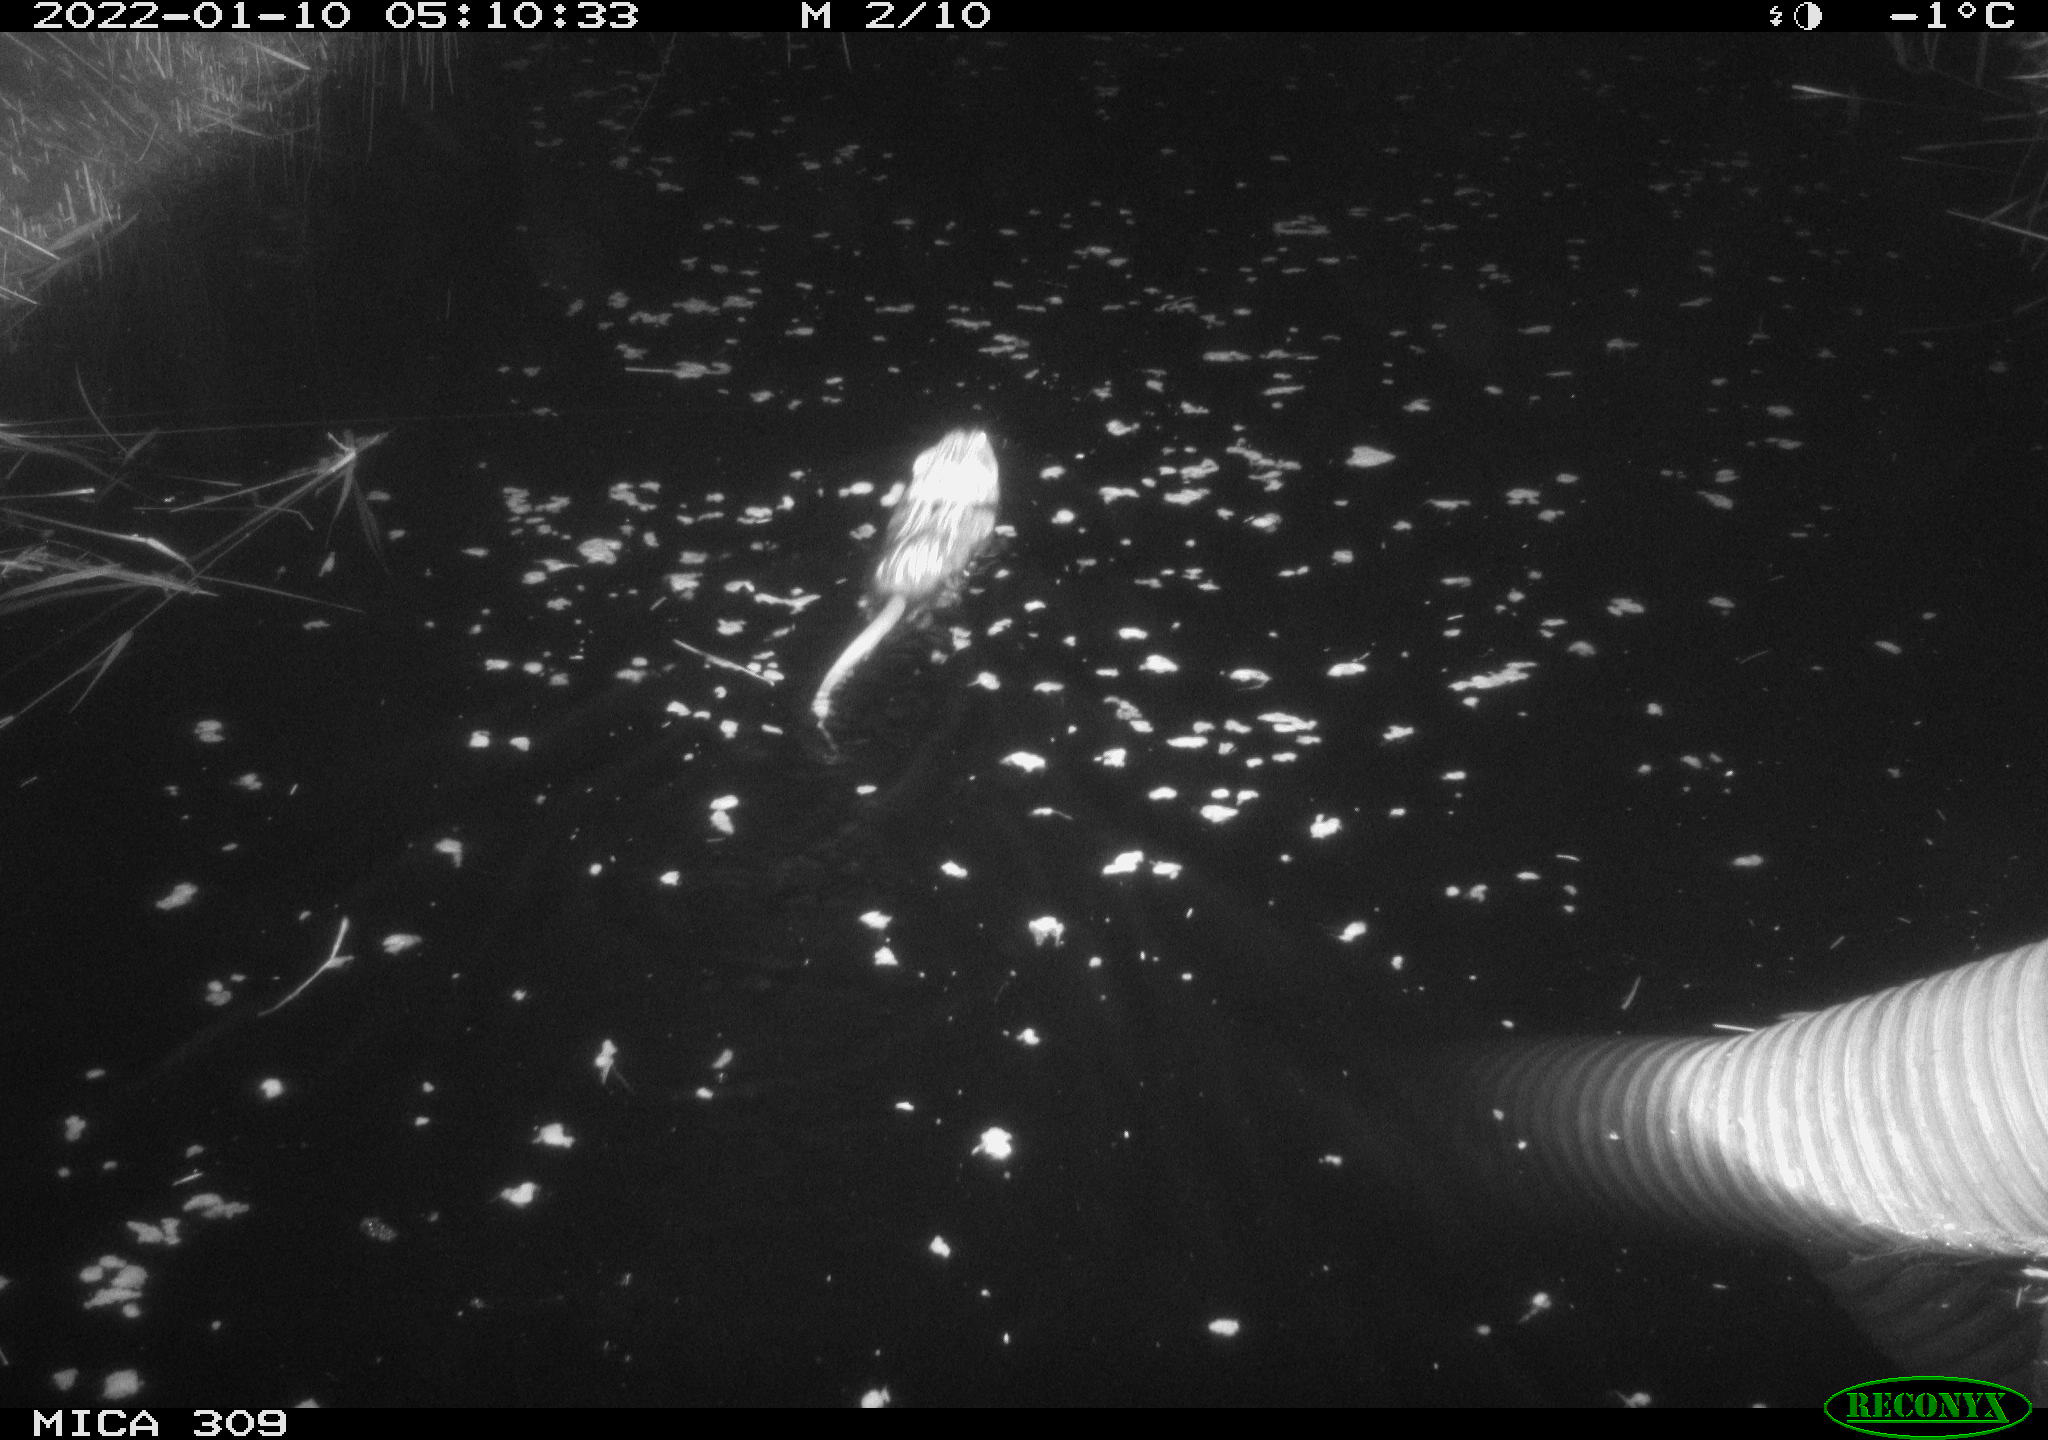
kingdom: Animalia
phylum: Chordata
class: Mammalia
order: Rodentia
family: Cricetidae
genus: Ondatra
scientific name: Ondatra zibethicus
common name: Muskrat
